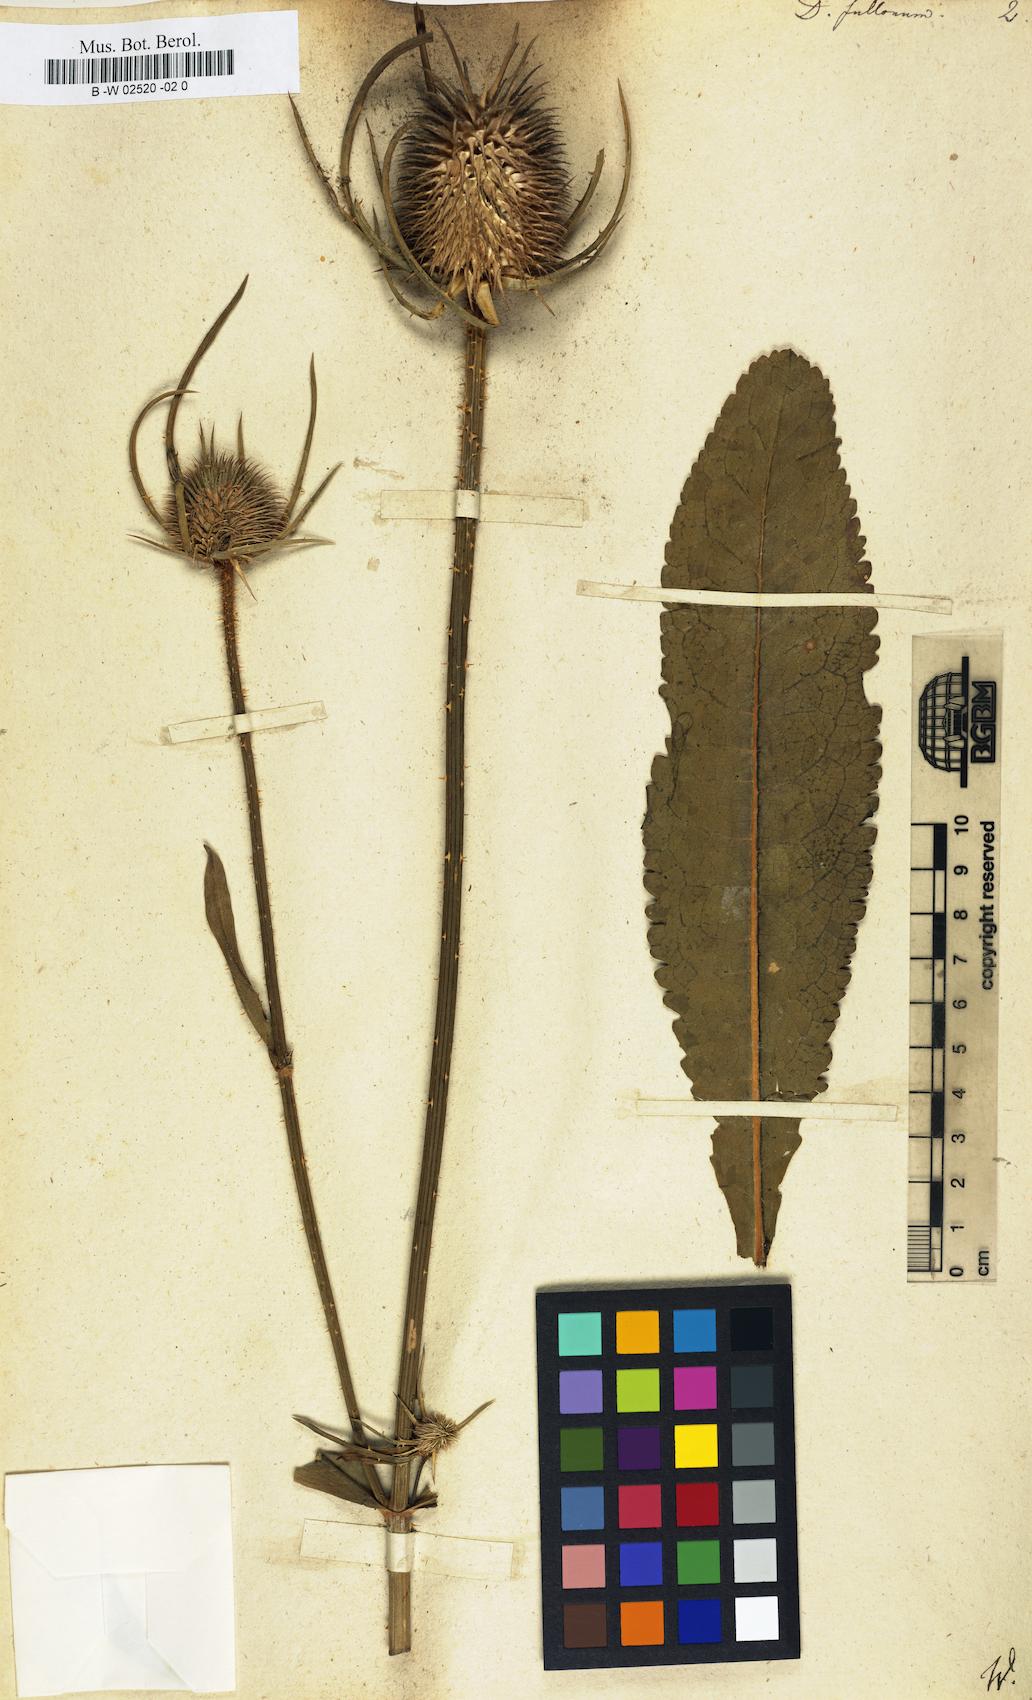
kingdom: Plantae
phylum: Tracheophyta
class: Magnoliopsida
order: Dipsacales
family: Caprifoliaceae
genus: Dipsacus
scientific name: Dipsacus fullonum
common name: Teasel
